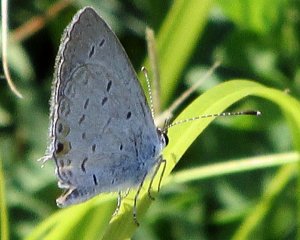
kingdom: Animalia
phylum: Arthropoda
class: Insecta
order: Lepidoptera
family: Lycaenidae
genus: Elkalyce
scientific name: Elkalyce comyntas
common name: Eastern Tailed-Blue
